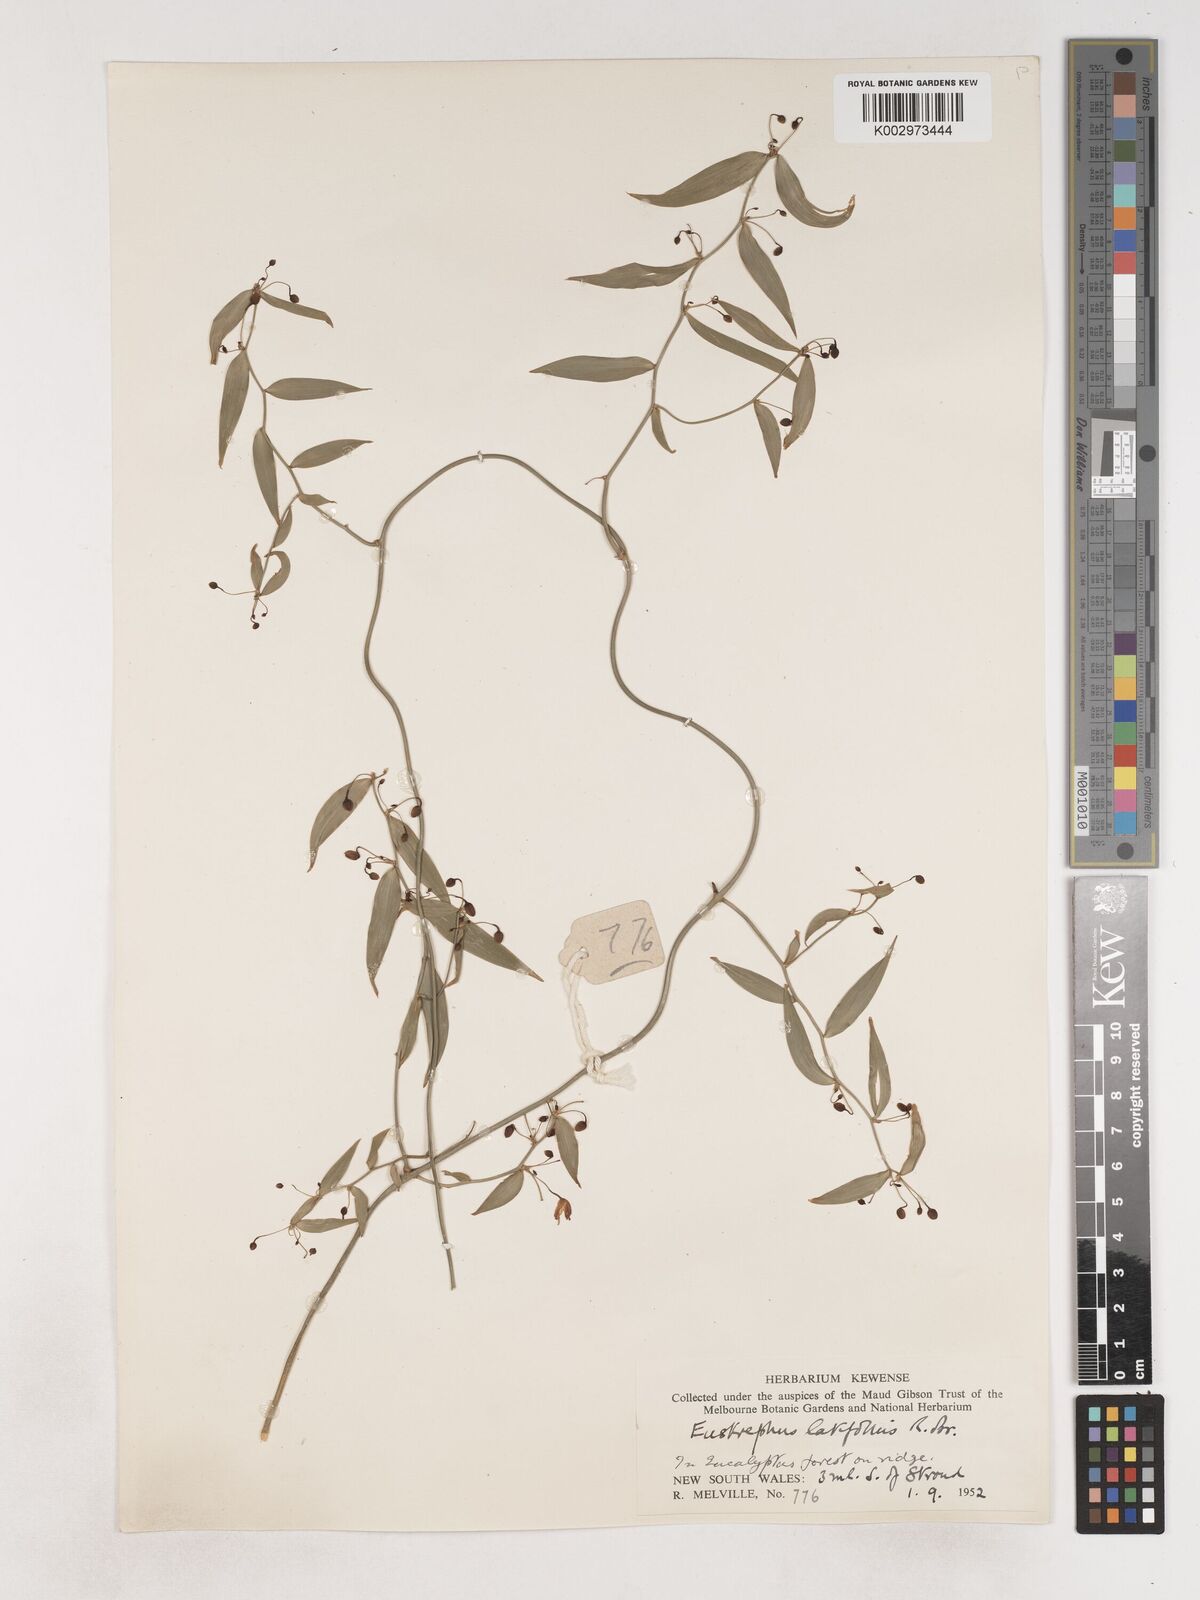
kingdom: Plantae
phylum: Tracheophyta
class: Liliopsida
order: Asparagales
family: Asparagaceae
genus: Eustrephus
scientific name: Eustrephus latifolius
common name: Orangevine
